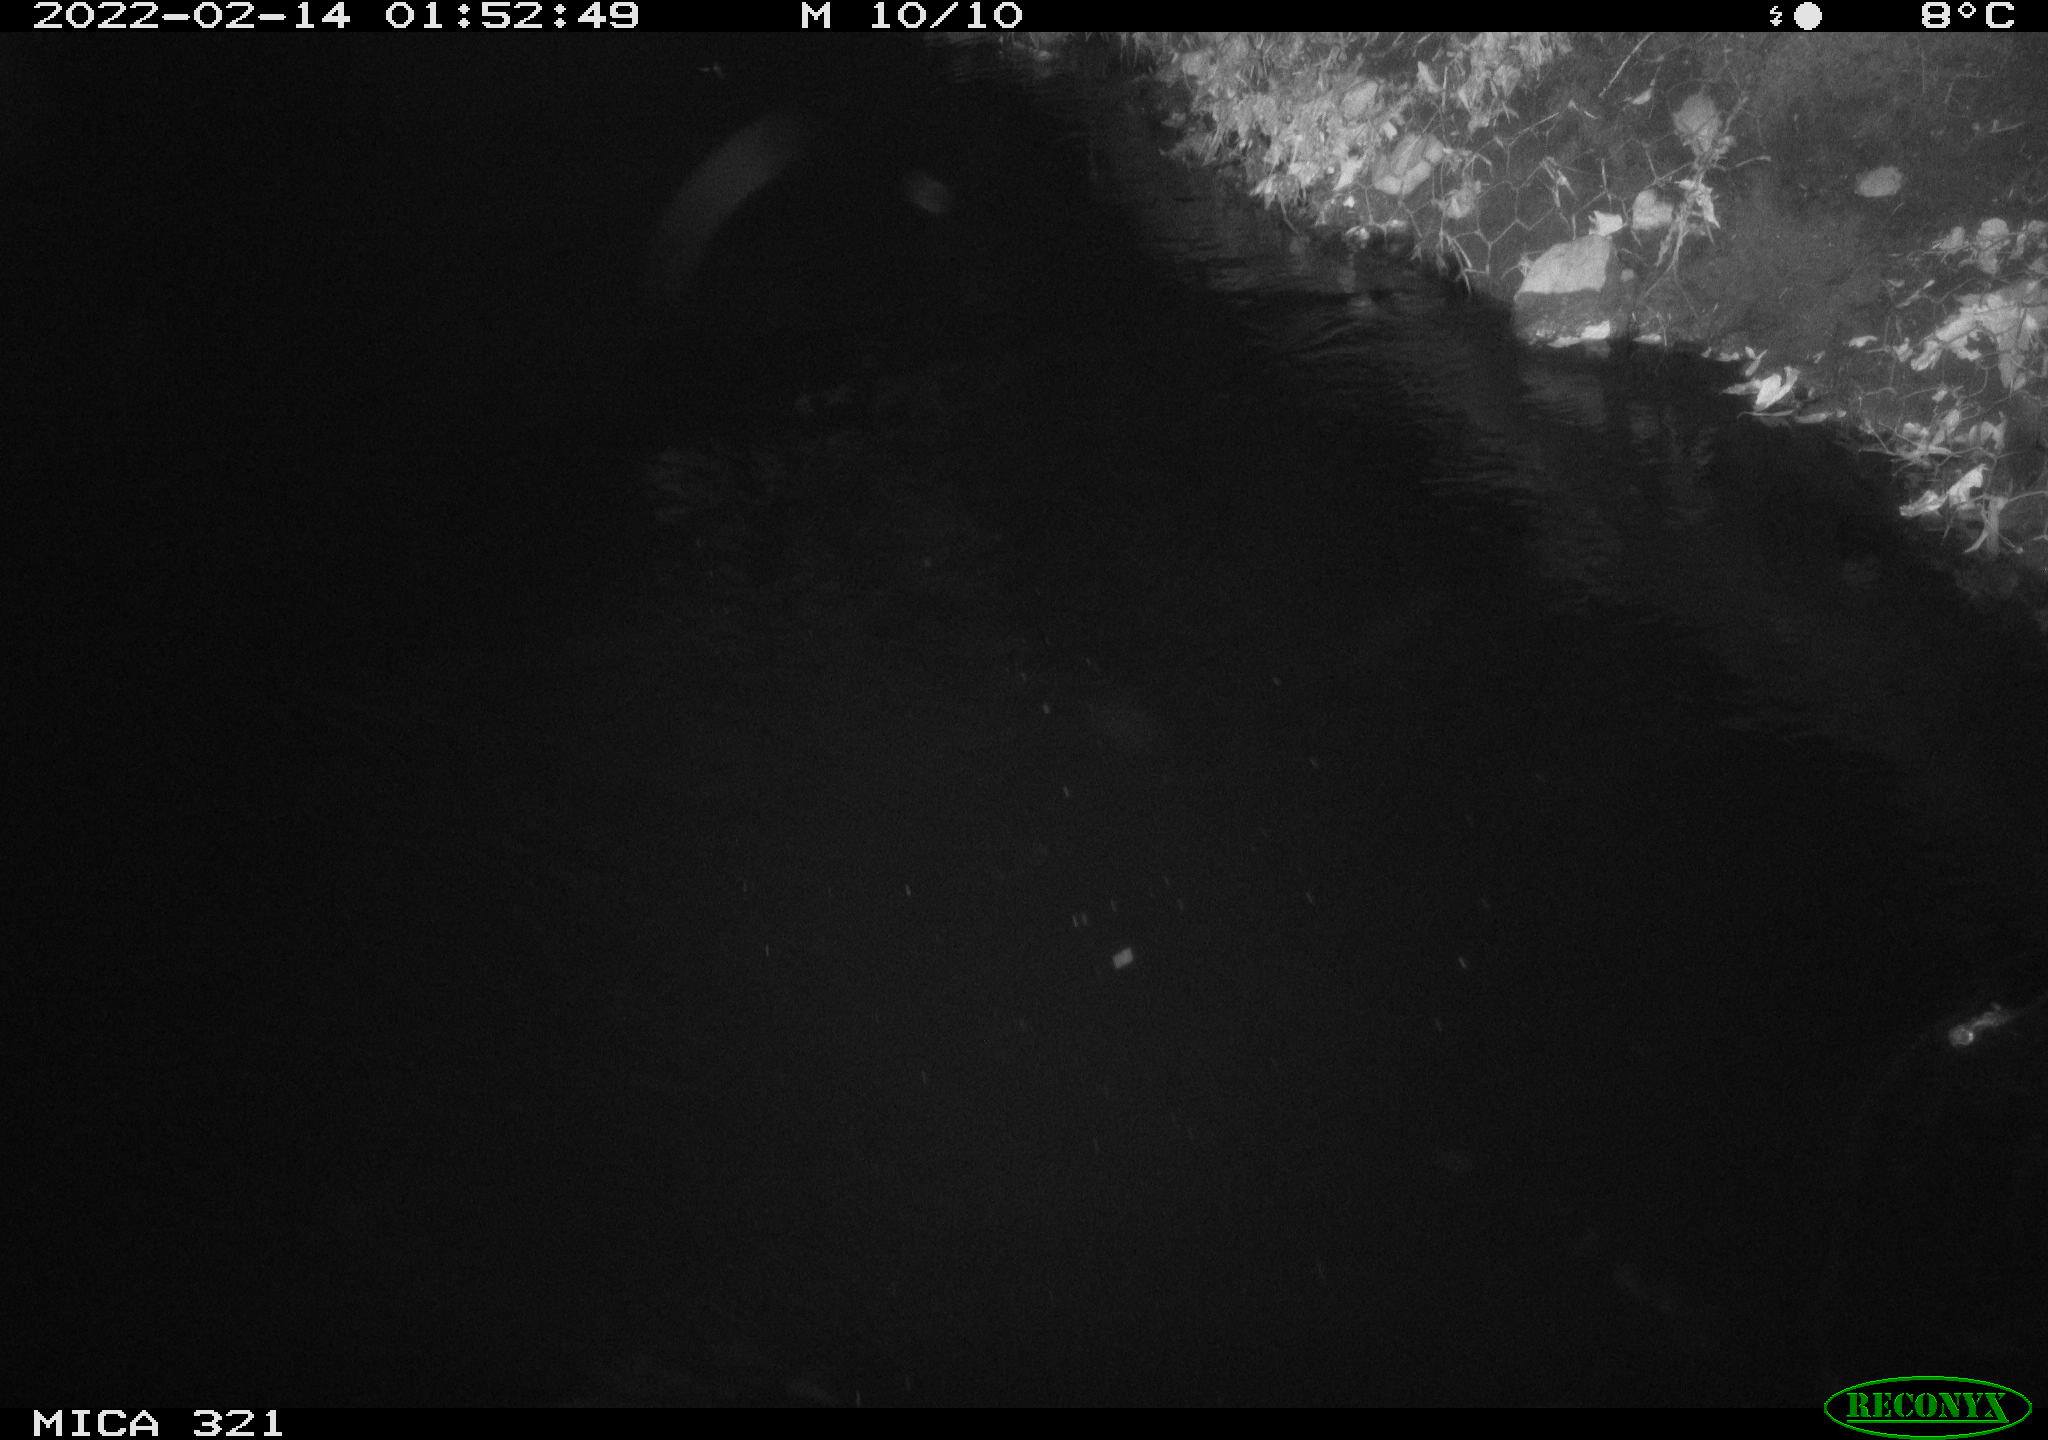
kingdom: Animalia
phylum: Chordata
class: Aves
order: Anseriformes
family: Anatidae
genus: Anas
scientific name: Anas platyrhynchos
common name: Mallard
